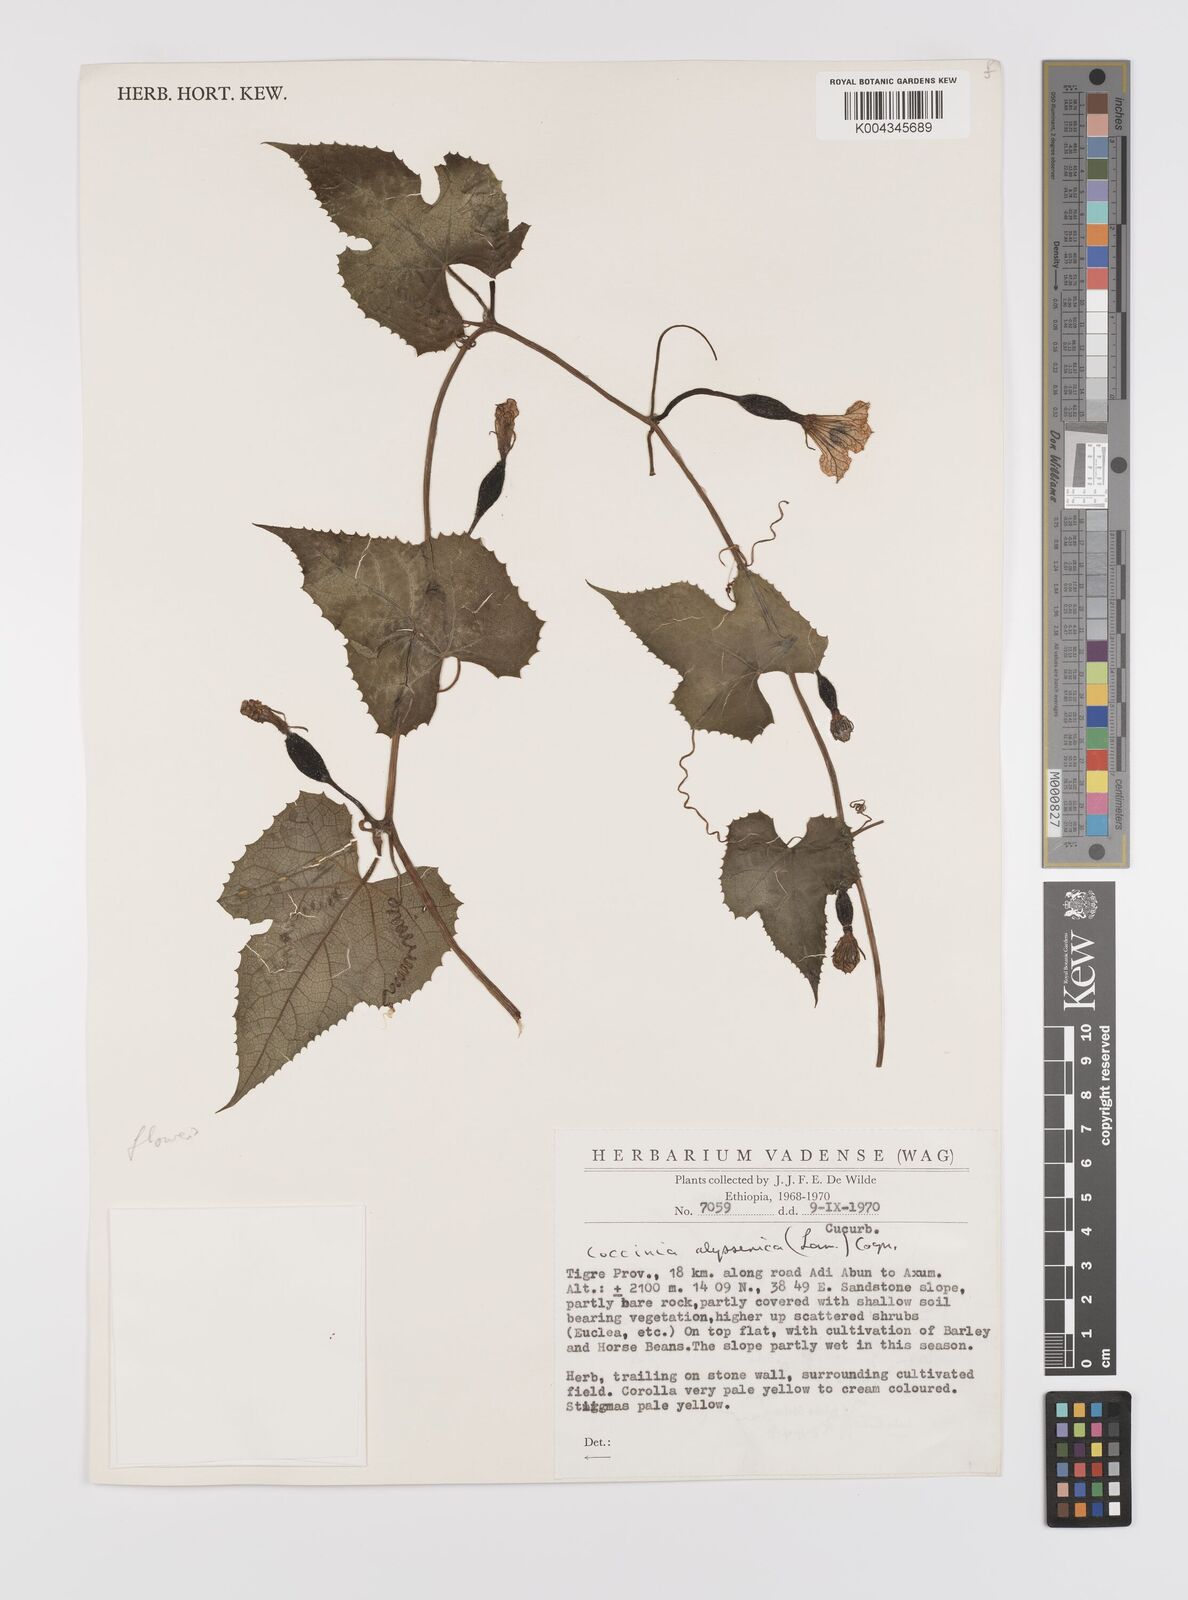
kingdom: Plantae
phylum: Tracheophyta
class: Magnoliopsida
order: Cucurbitales
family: Cucurbitaceae
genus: Coccinia
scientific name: Coccinia abyssinica
